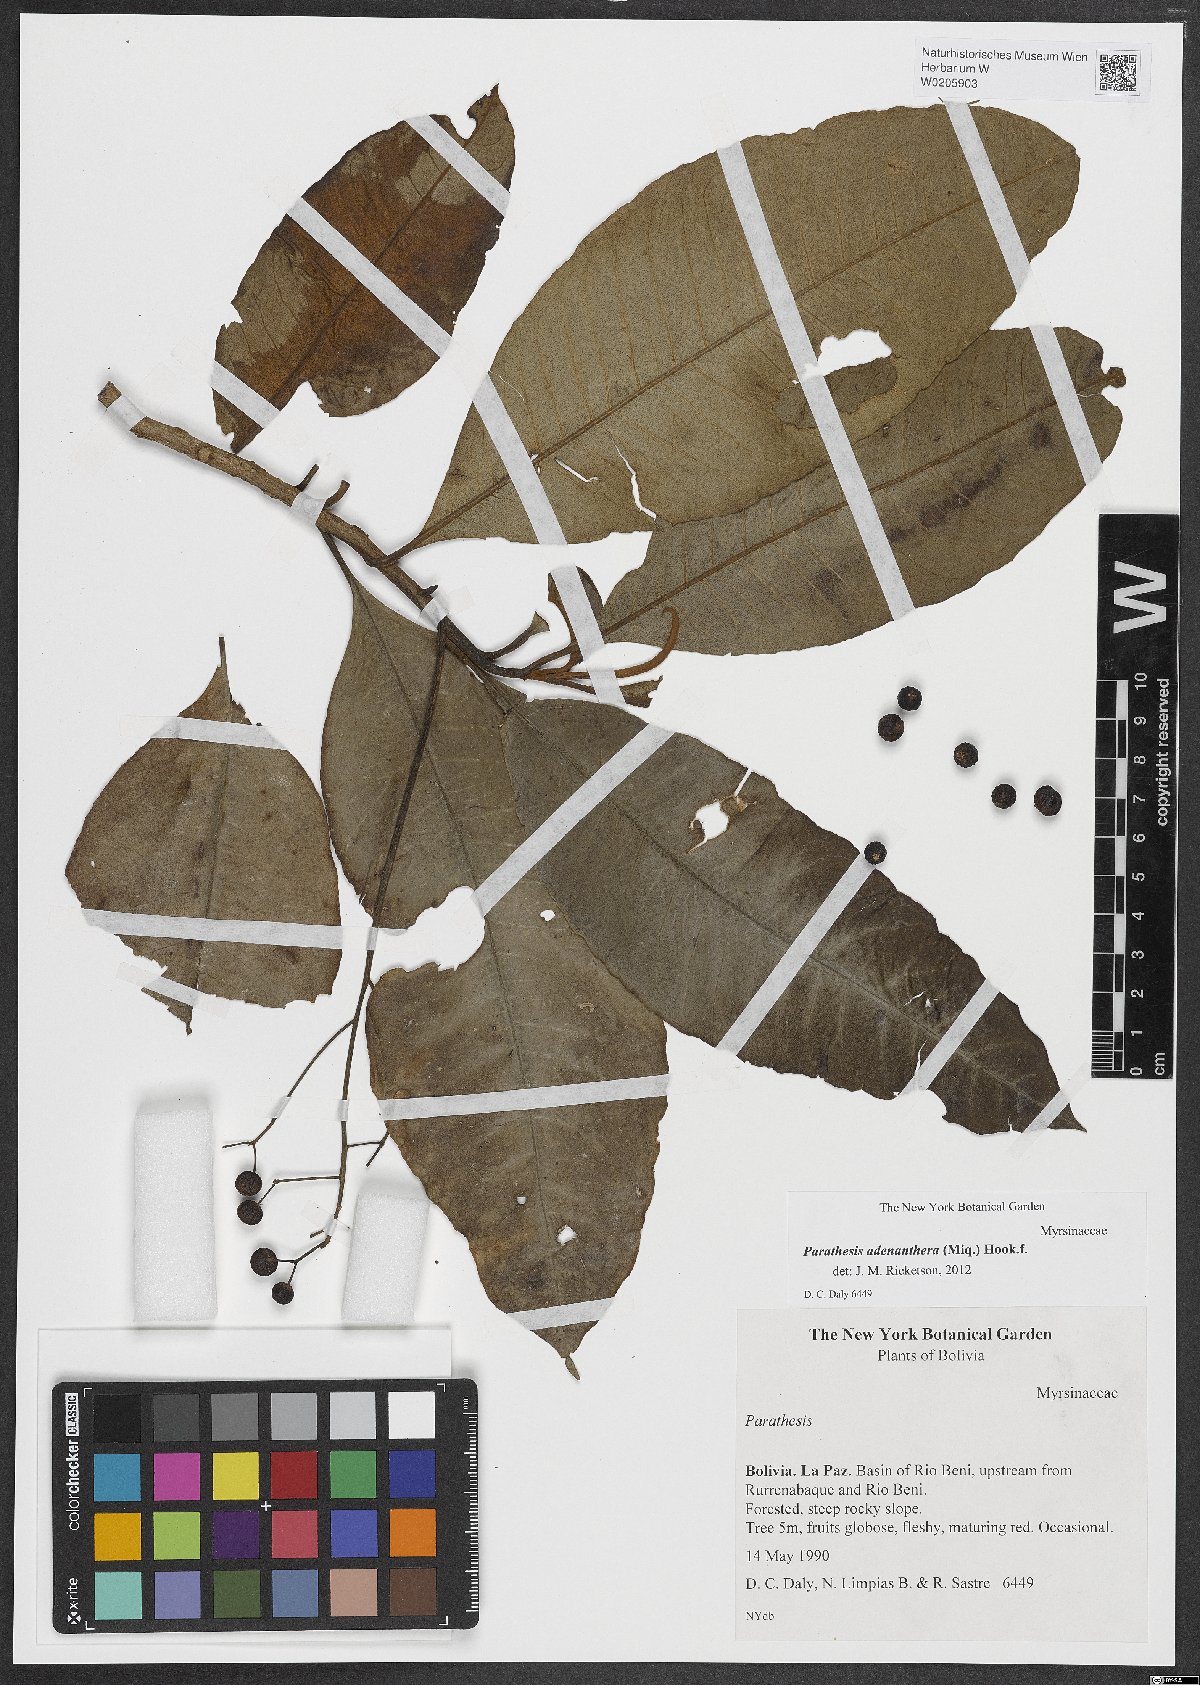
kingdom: Plantae
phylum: Tracheophyta
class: Magnoliopsida
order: Ericales
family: Primulaceae
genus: Parathesis
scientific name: Parathesis adenanthera
